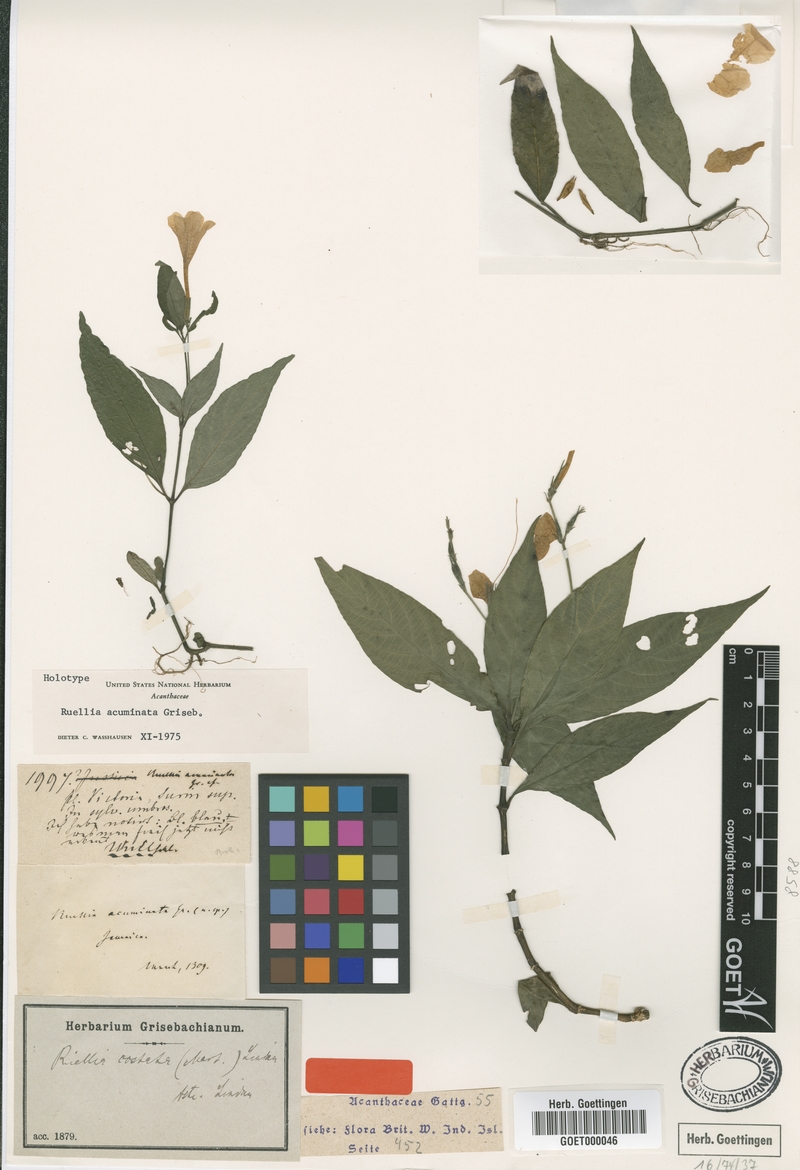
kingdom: Plantae
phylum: Tracheophyta
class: Magnoliopsida
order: Lamiales
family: Acanthaceae
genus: Ruellia
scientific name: Ruellia costata
